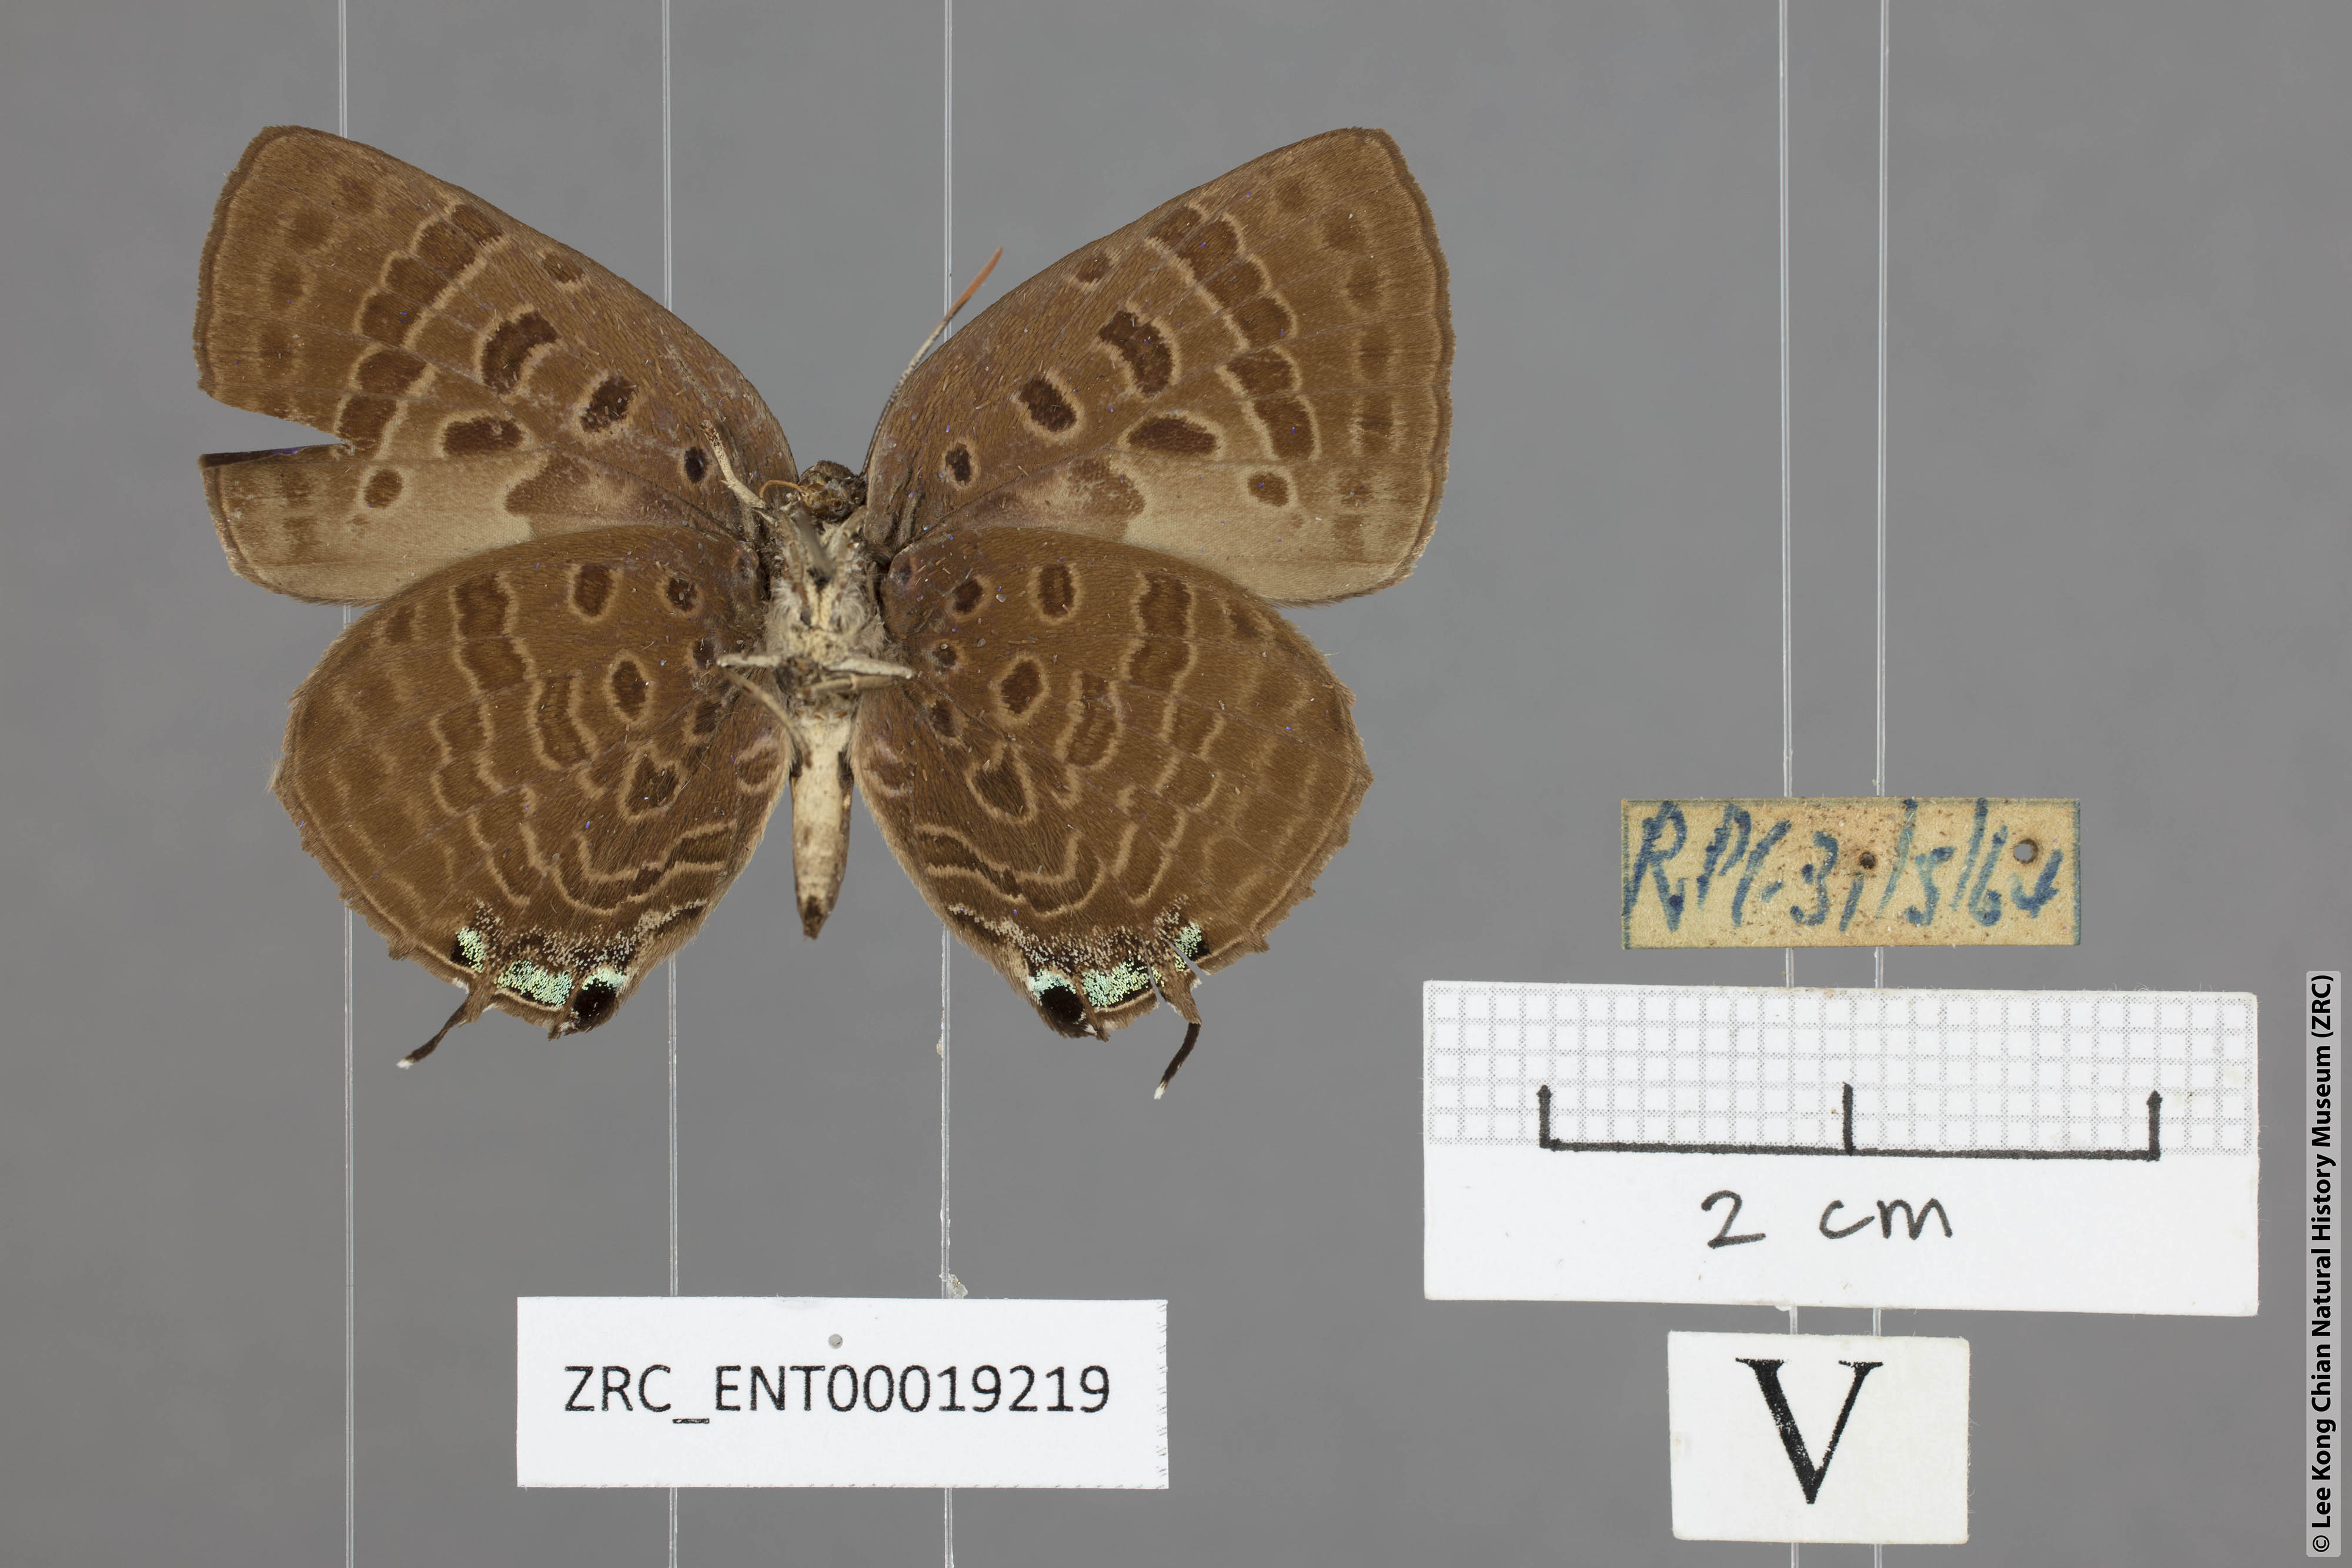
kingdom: Animalia
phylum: Arthropoda
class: Insecta
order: Lepidoptera
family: Lycaenidae
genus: Arhopala
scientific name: Arhopala athada
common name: Vinous oakblue
